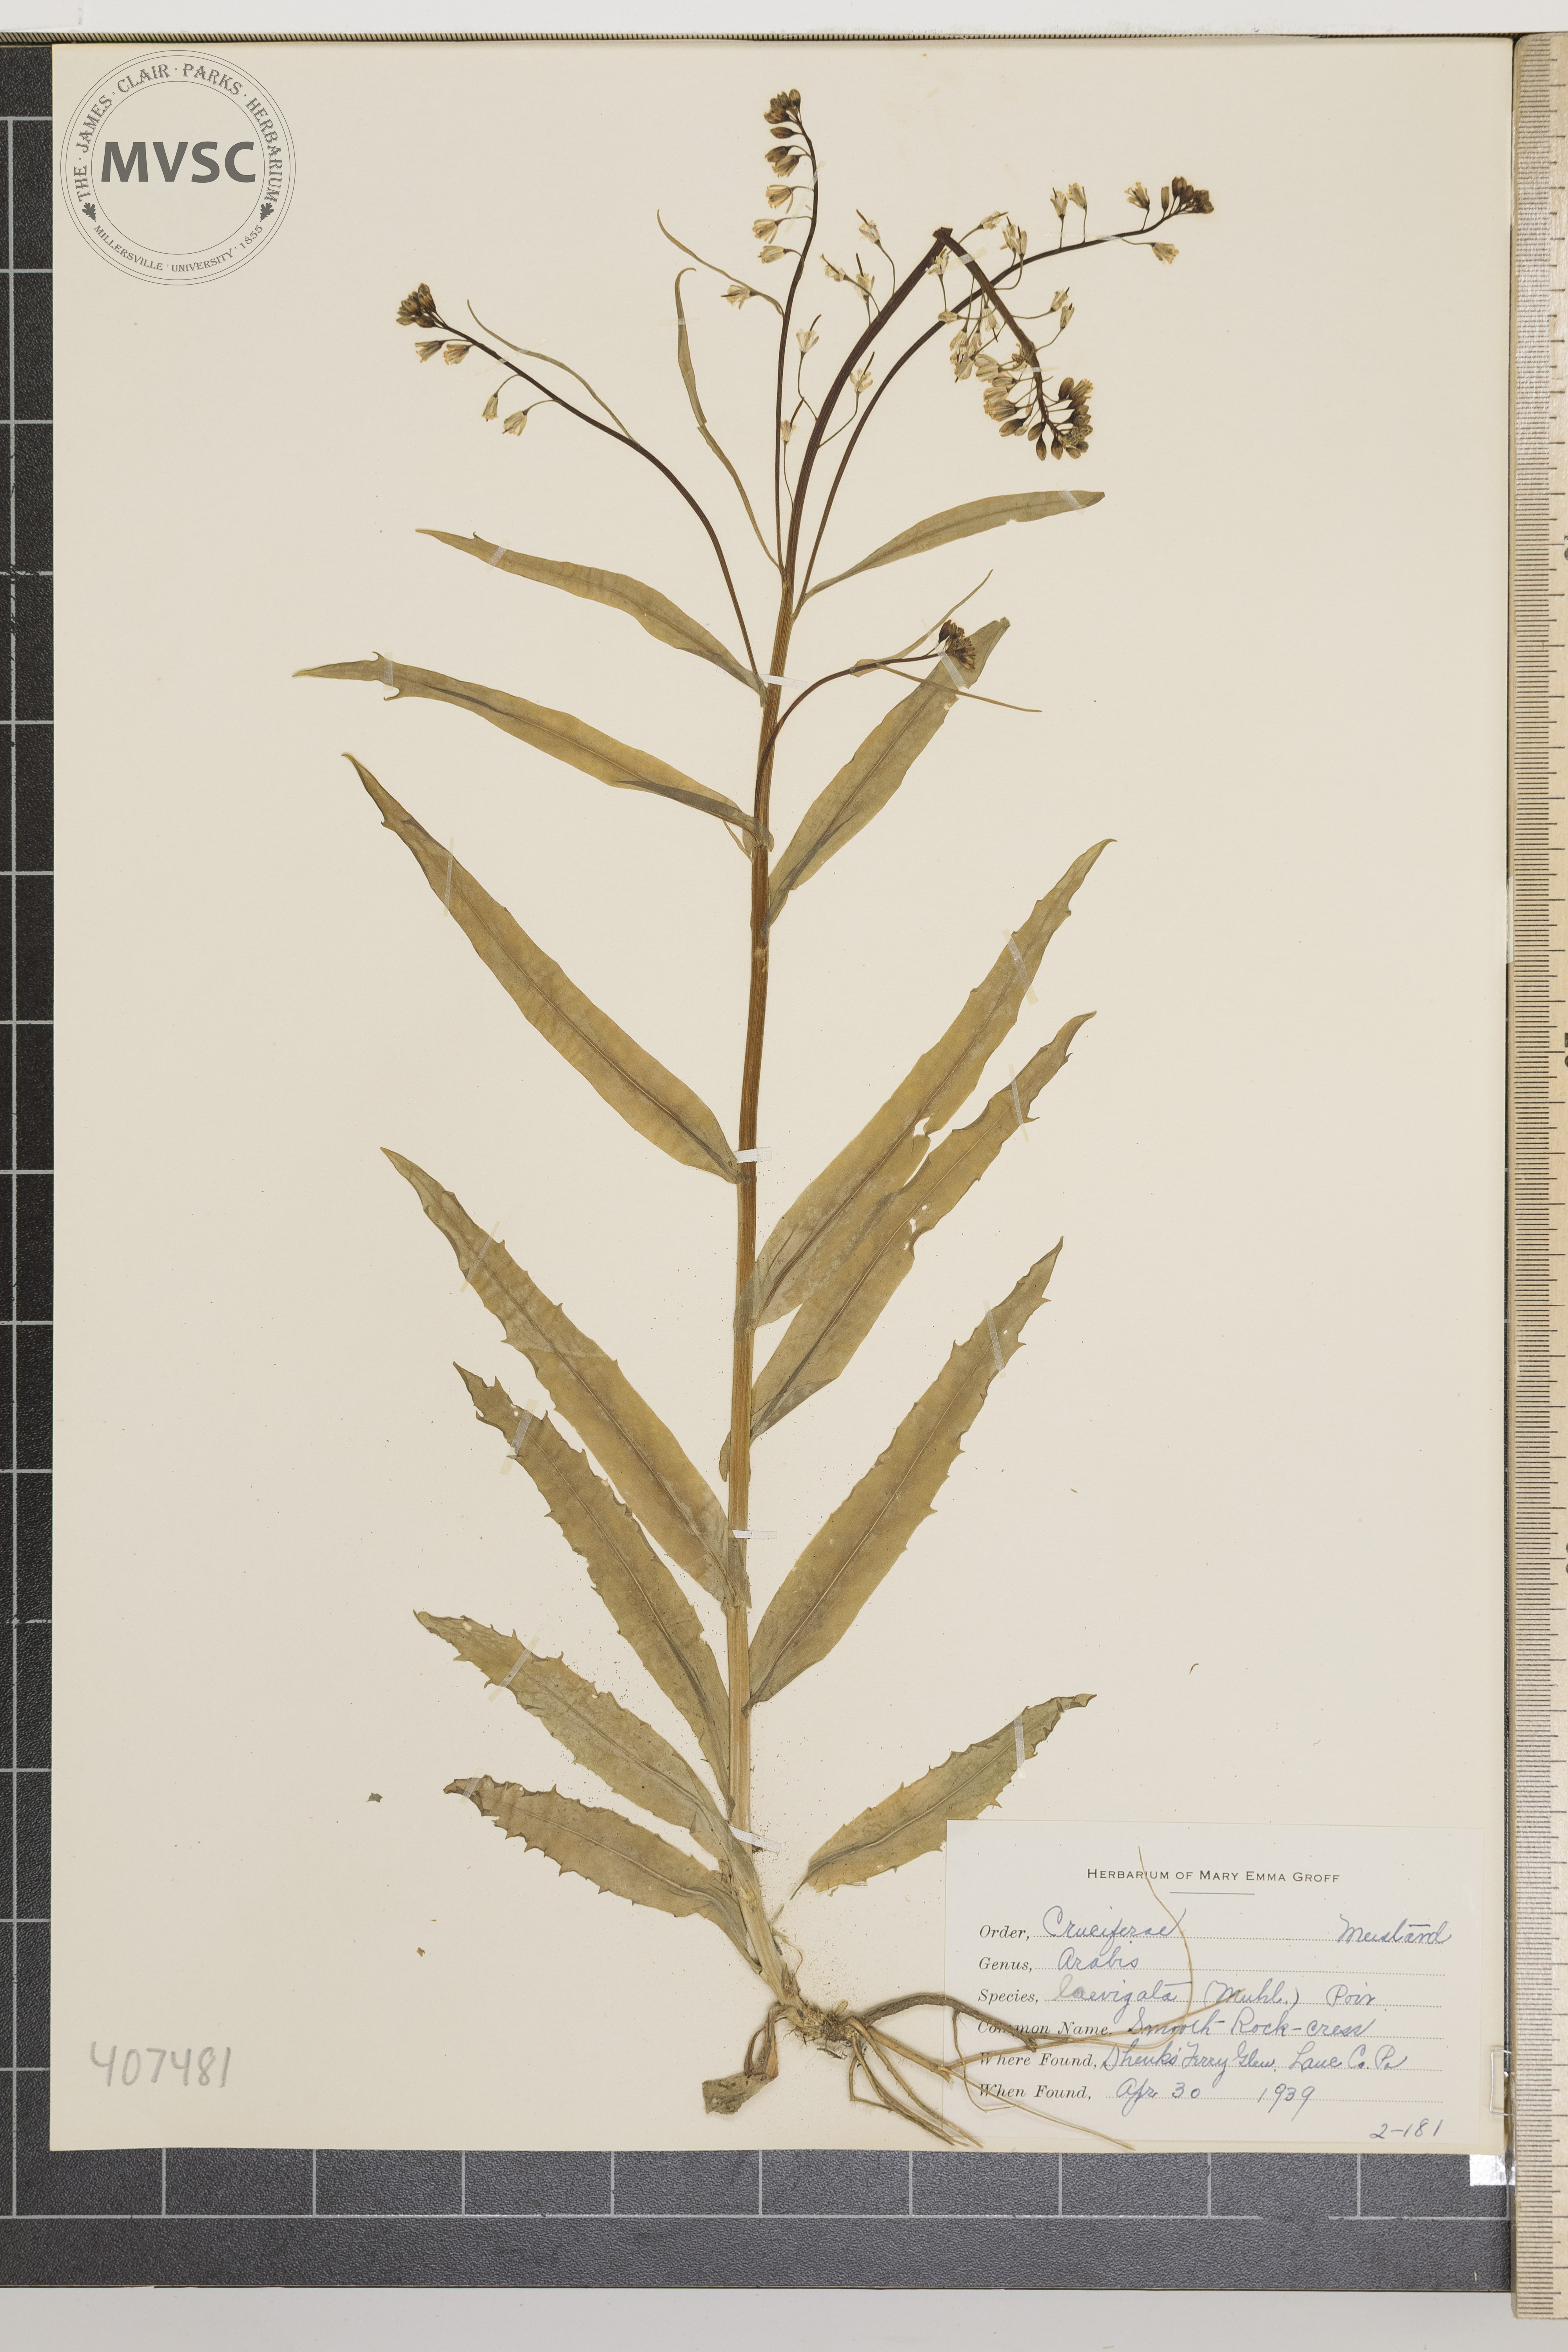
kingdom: Plantae
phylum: Tracheophyta
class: Magnoliopsida
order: Brassicales
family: Brassicaceae
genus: Arabis
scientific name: Arabis laevigata
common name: Smooth Rock-cress
